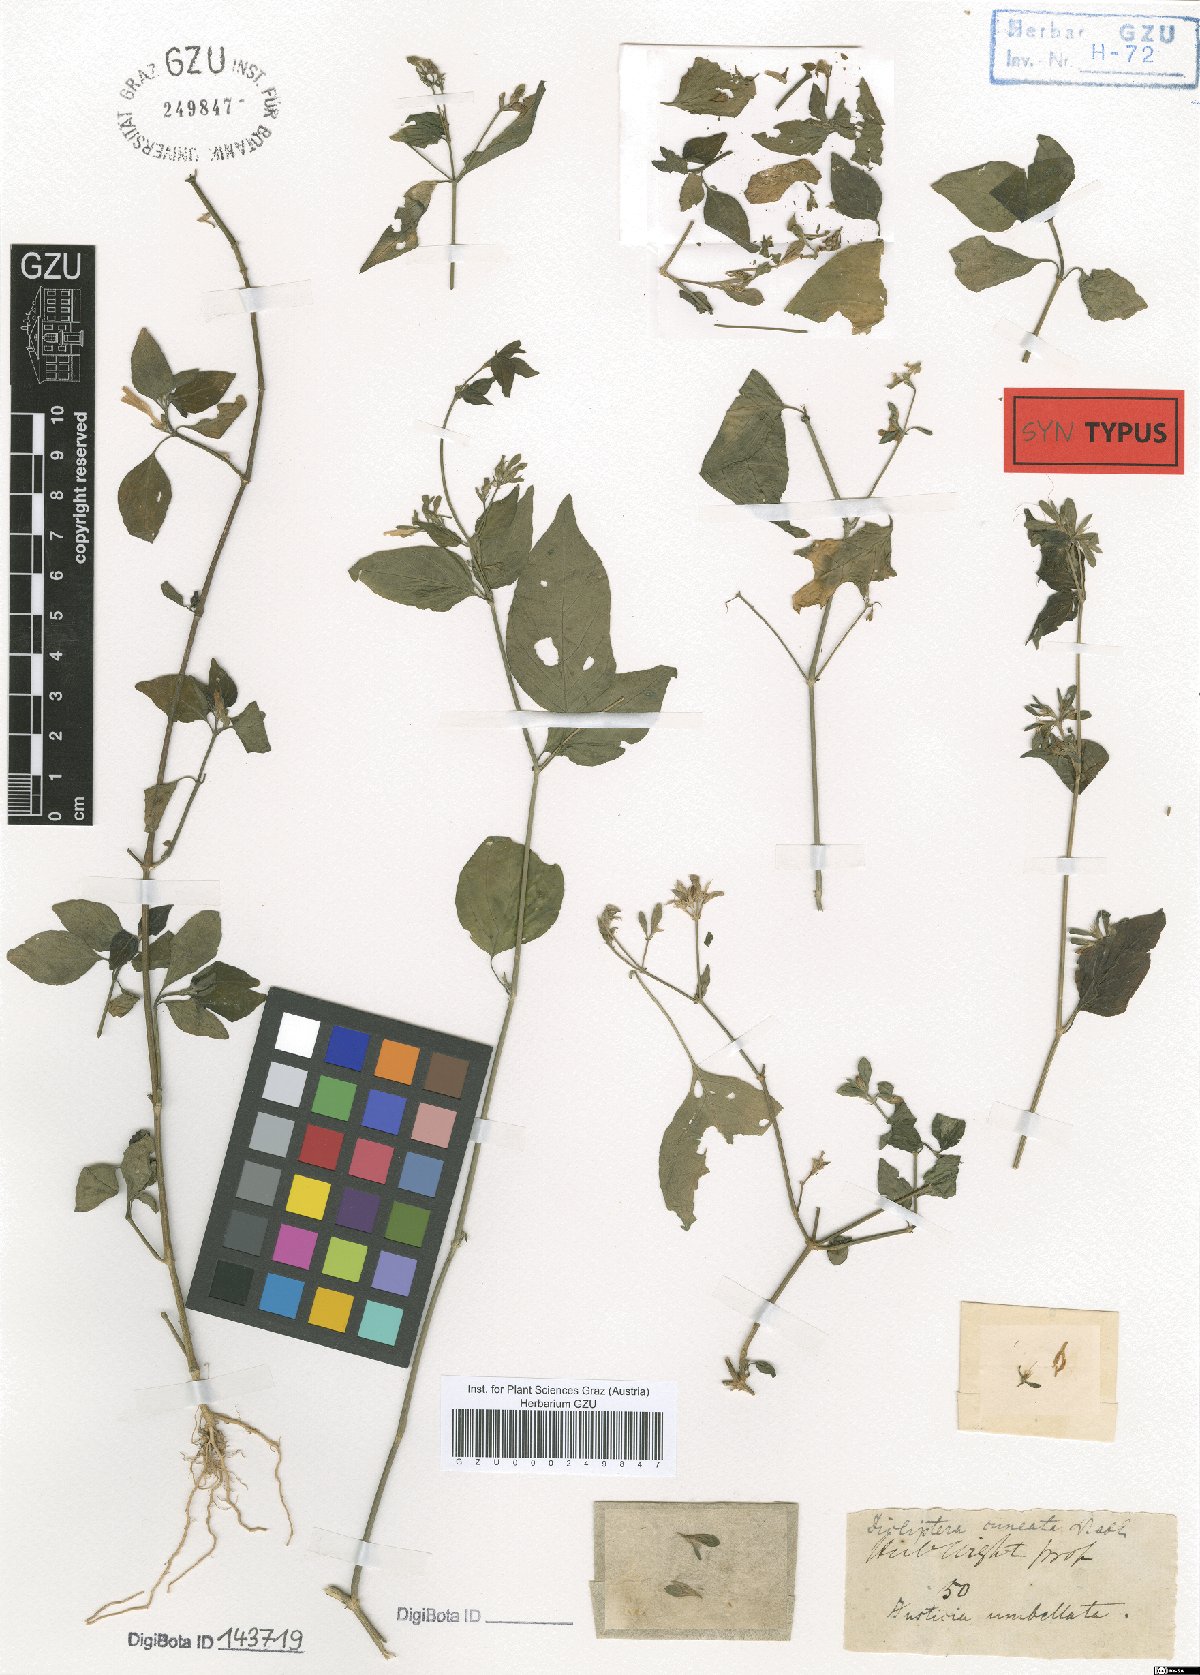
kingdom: Plantae
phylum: Tracheophyta
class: Magnoliopsida
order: Lamiales
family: Acanthaceae
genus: Dicliptera
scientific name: Dicliptera cuneata
